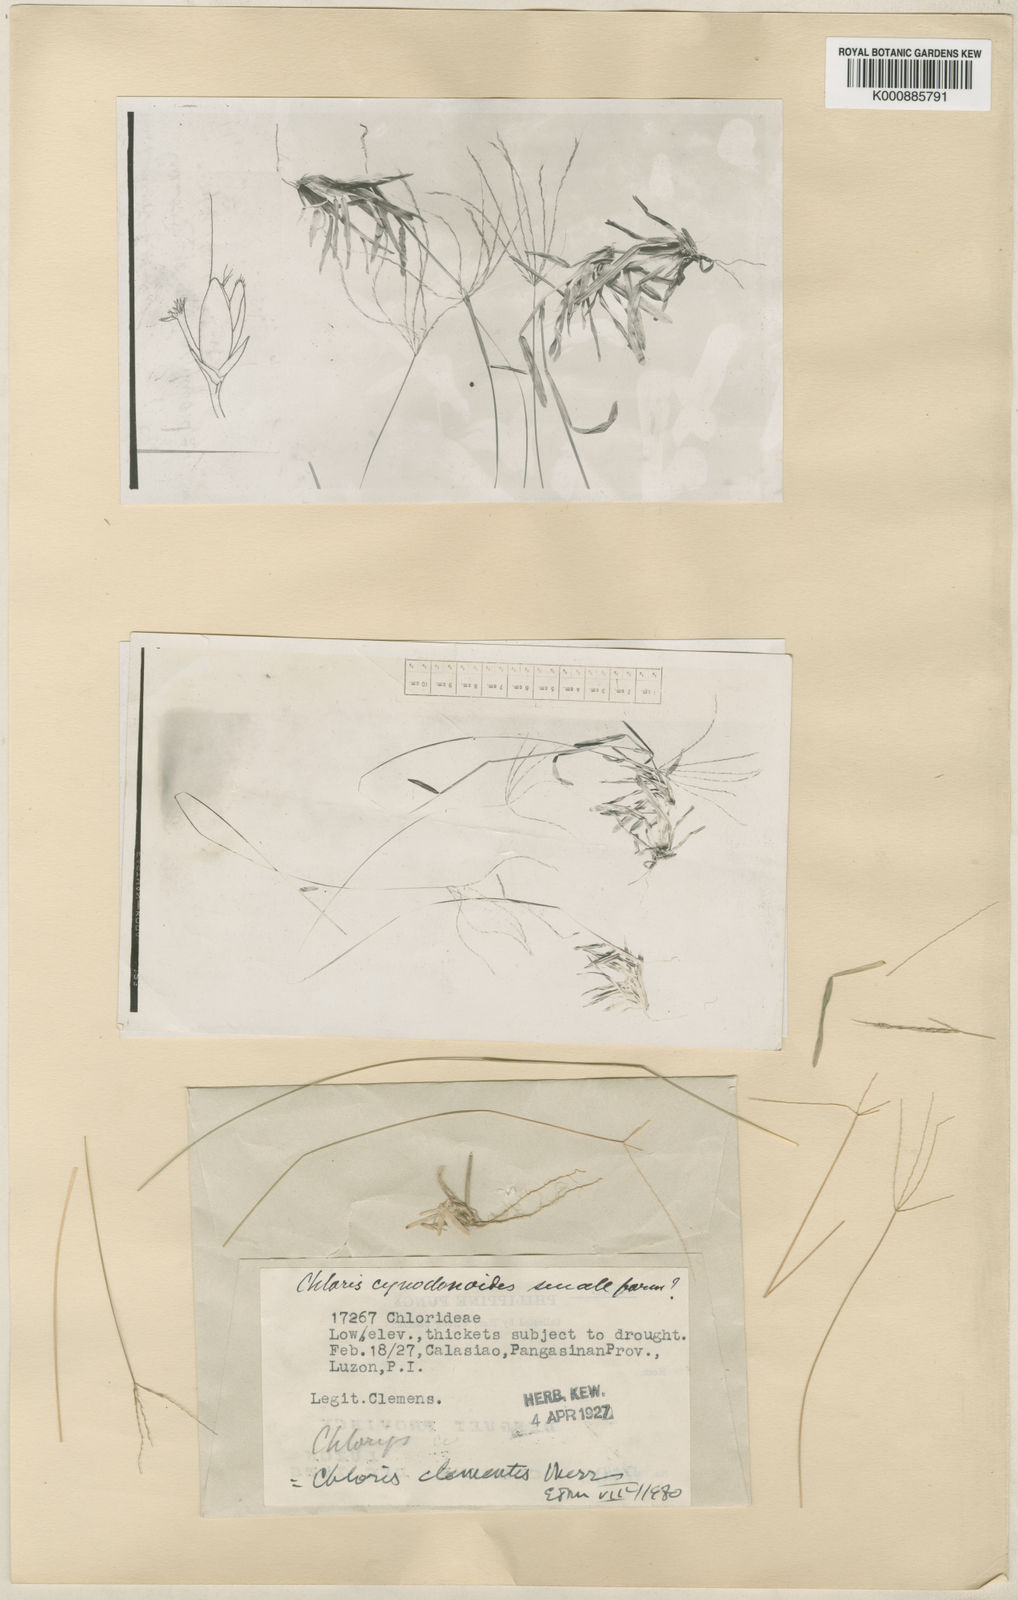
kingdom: Plantae
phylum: Tracheophyta
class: Liliopsida
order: Poales
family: Poaceae
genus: Chloris
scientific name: Chloris clementis
